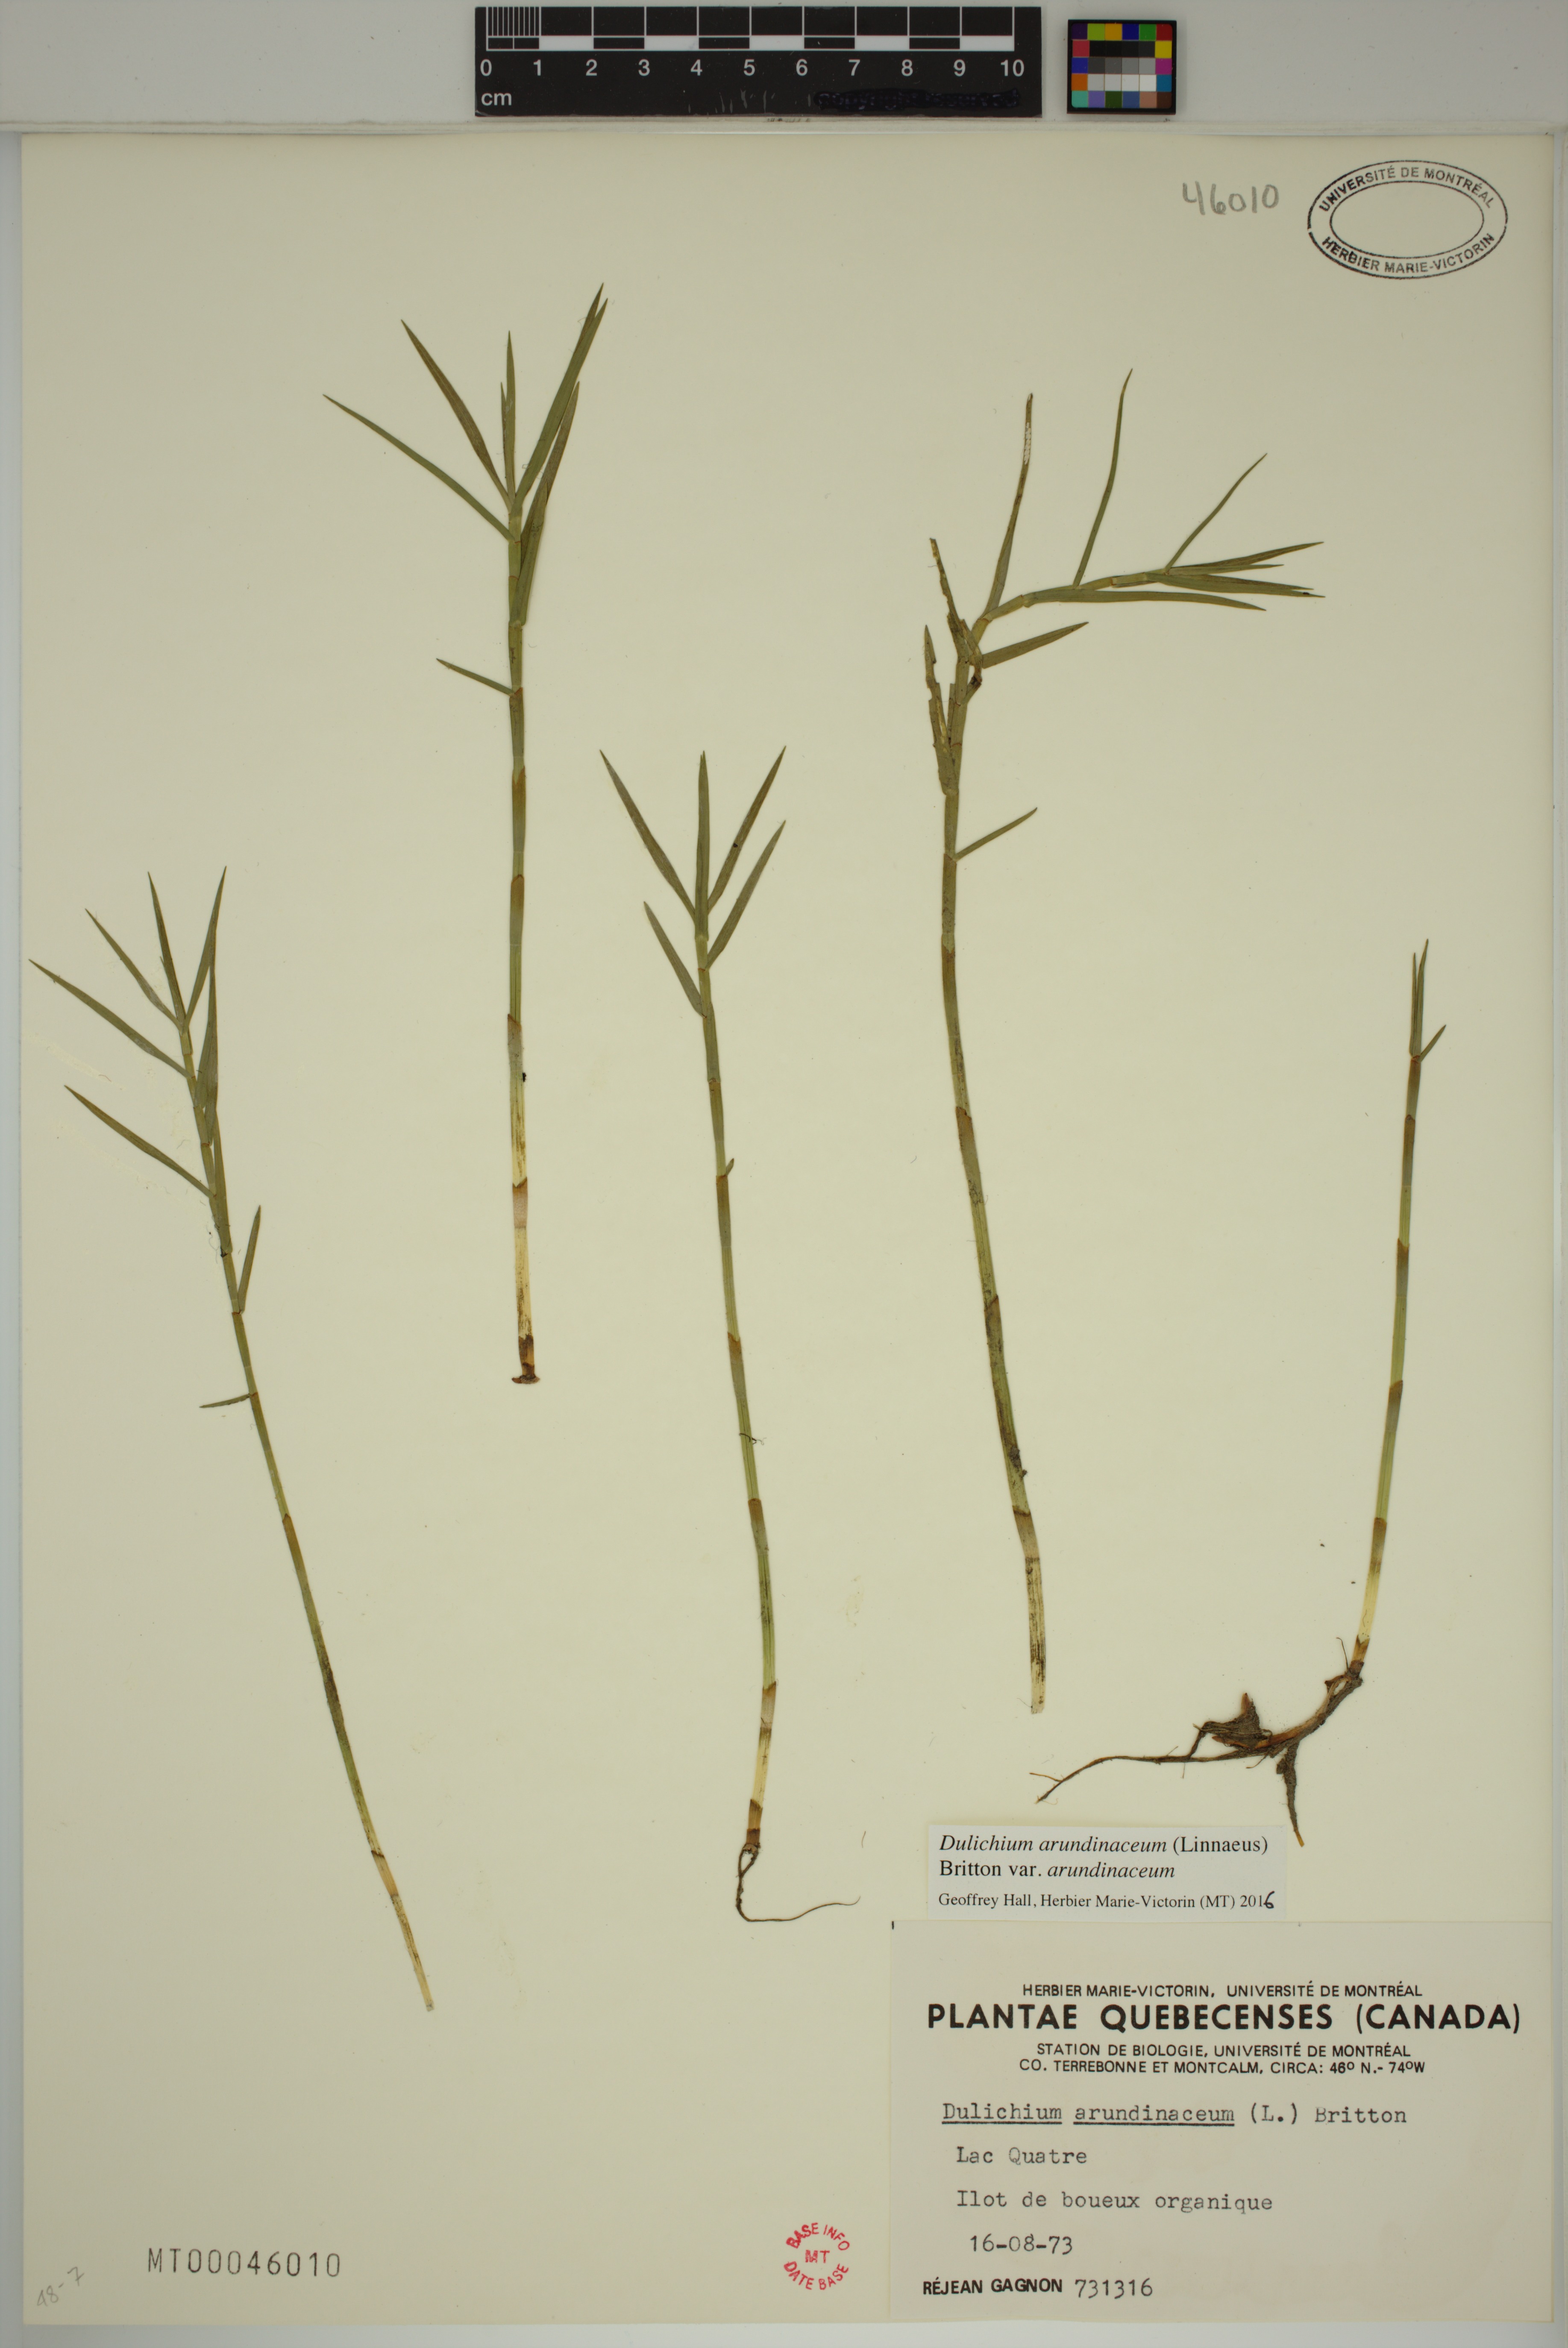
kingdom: Plantae
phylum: Tracheophyta
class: Liliopsida
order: Poales
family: Cyperaceae
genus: Dulichium
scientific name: Dulichium arundinaceum
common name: Three-way sedge
